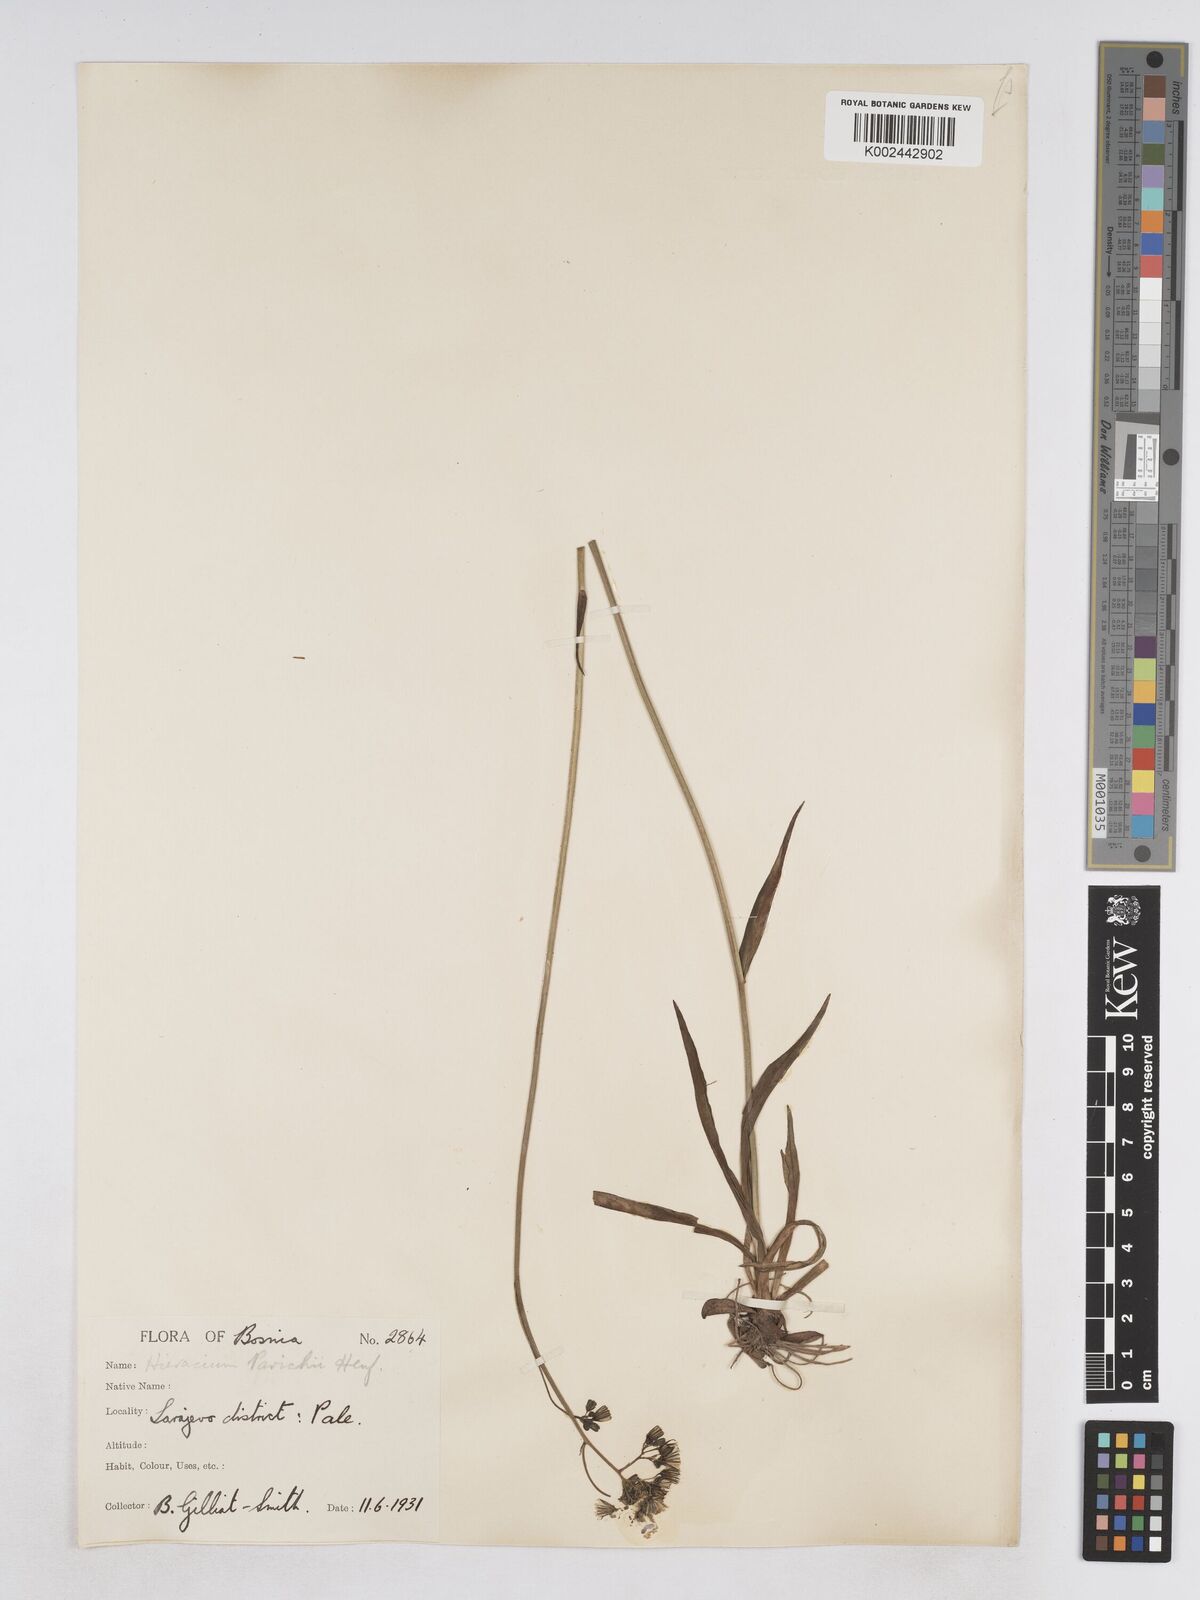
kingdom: Plantae
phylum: Tracheophyta
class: Magnoliopsida
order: Asterales
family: Asteraceae
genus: Pilosella
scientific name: Pilosella pavichii
